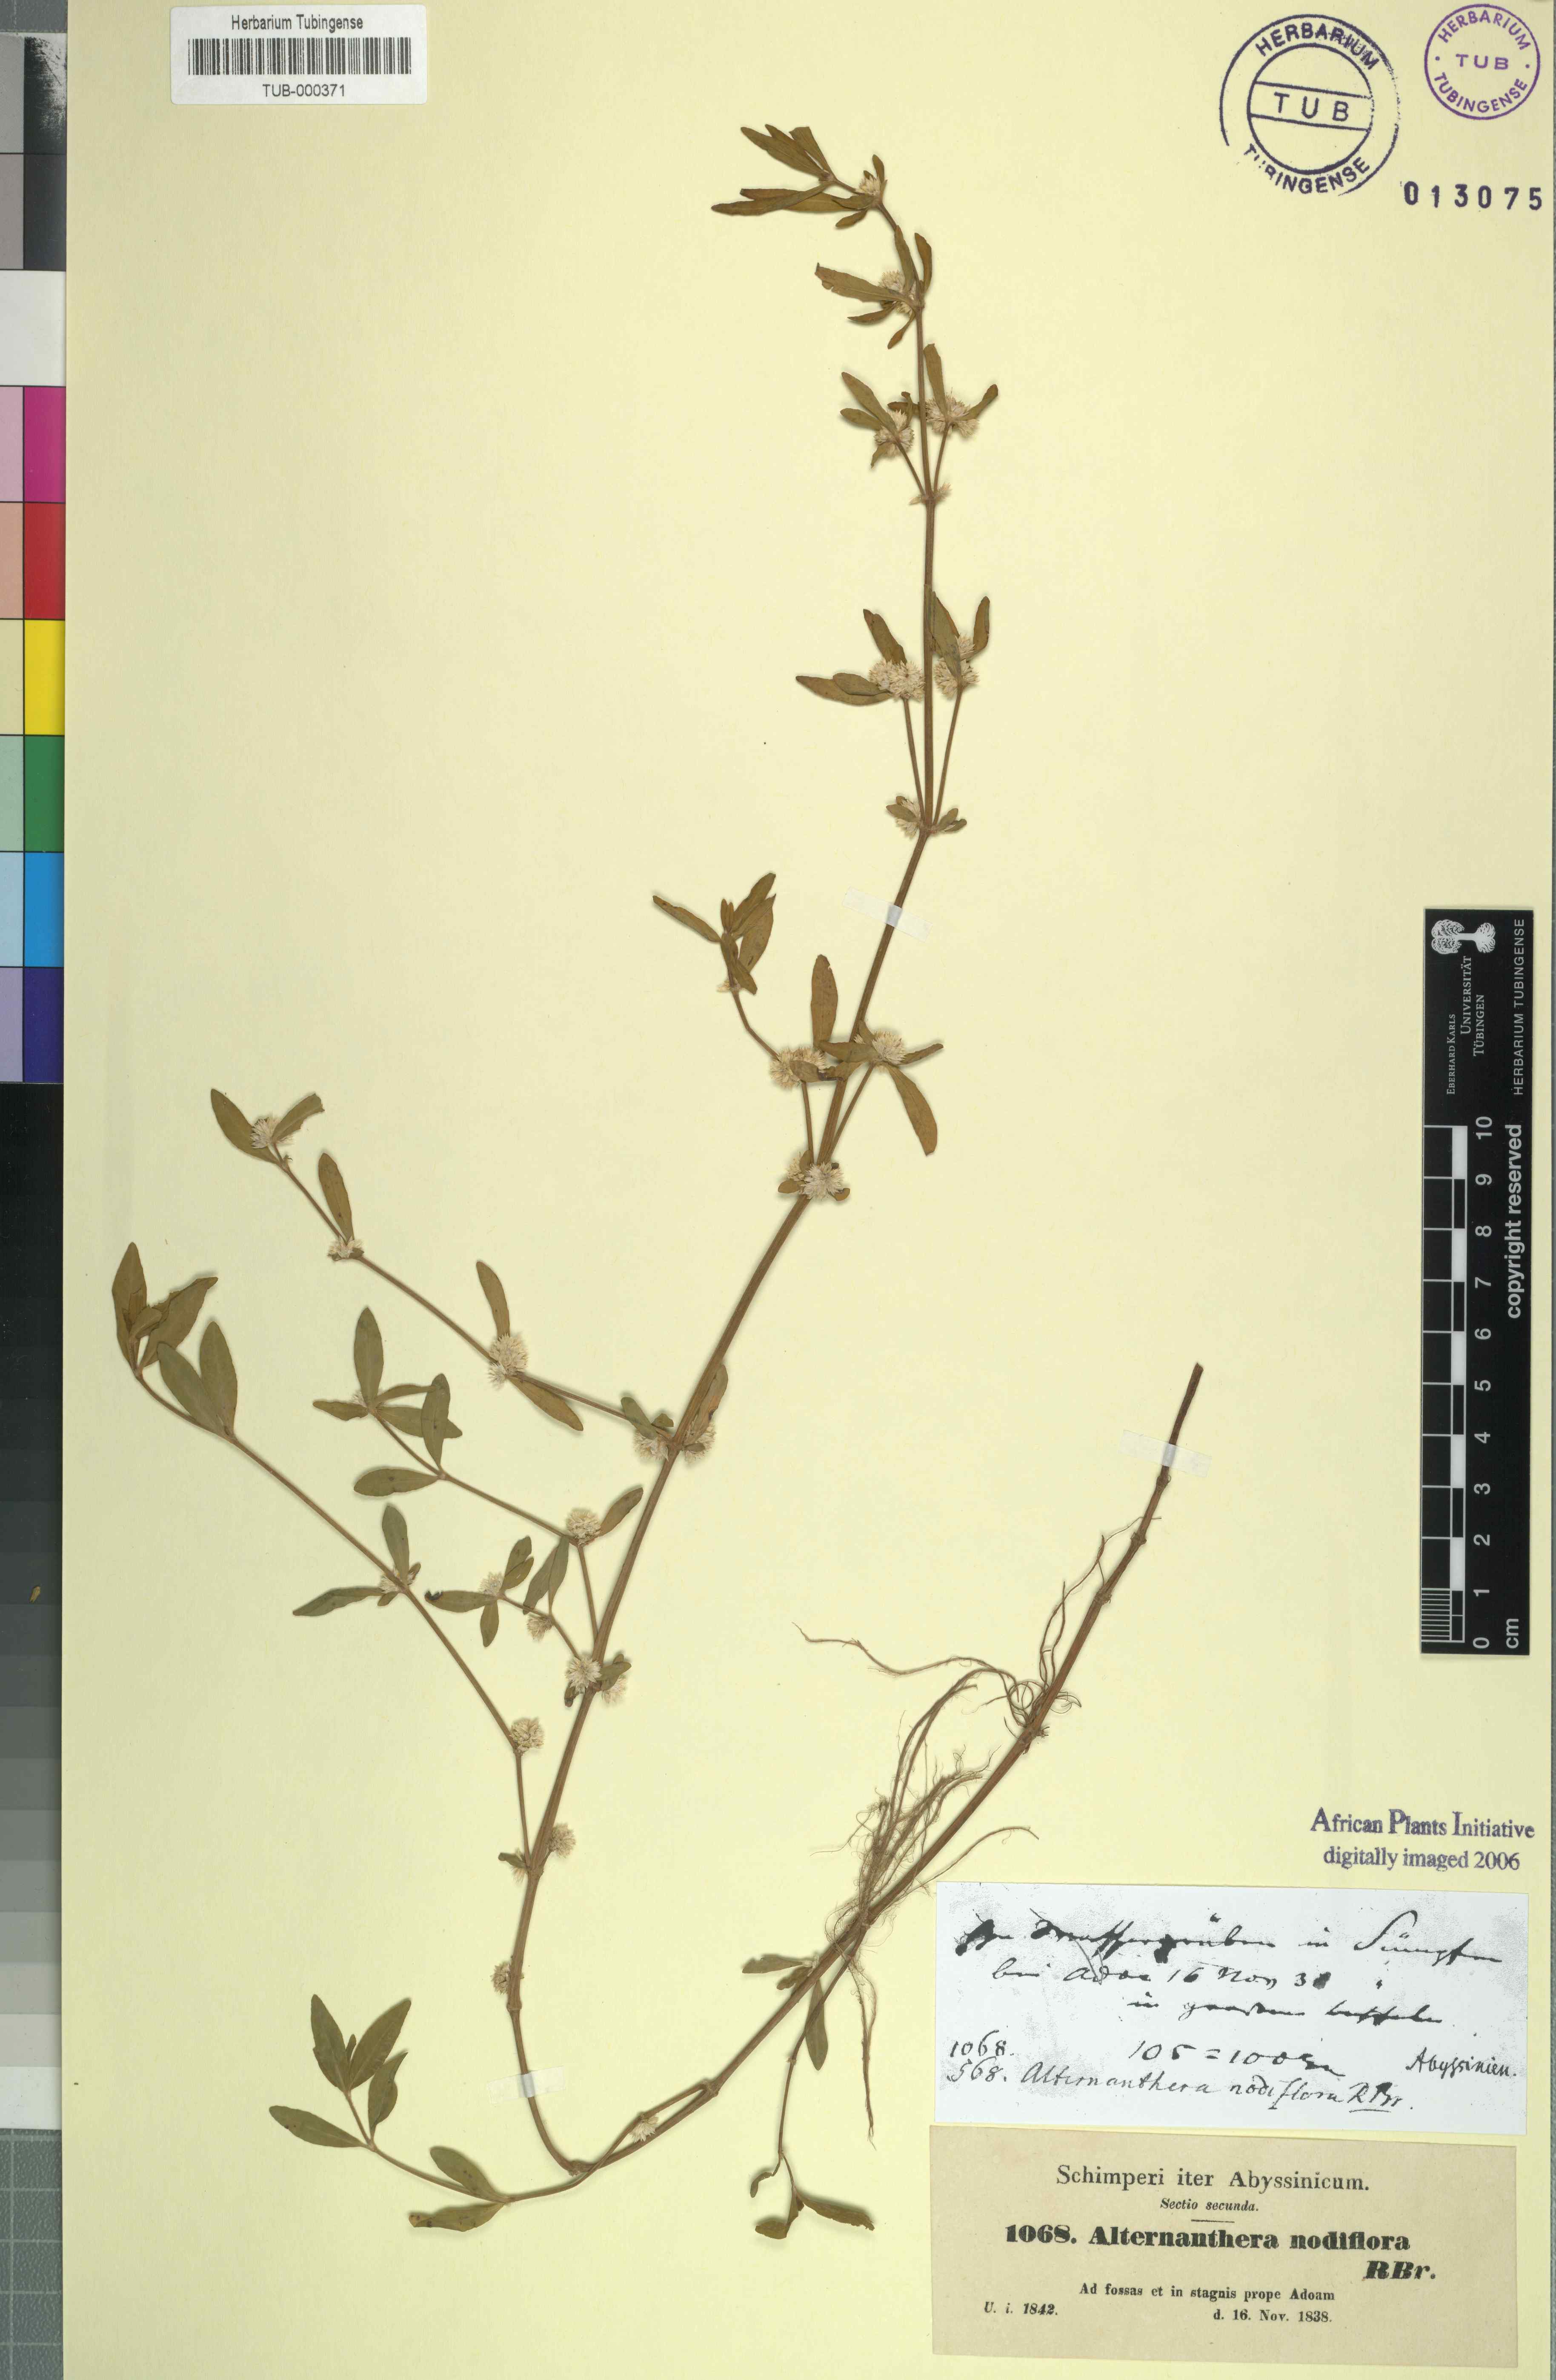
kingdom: Plantae
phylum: Tracheophyta
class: Magnoliopsida
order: Caryophyllales
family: Amaranthaceae
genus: Alternanthera
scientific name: Alternanthera sessilis
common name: Sessile joyweed
